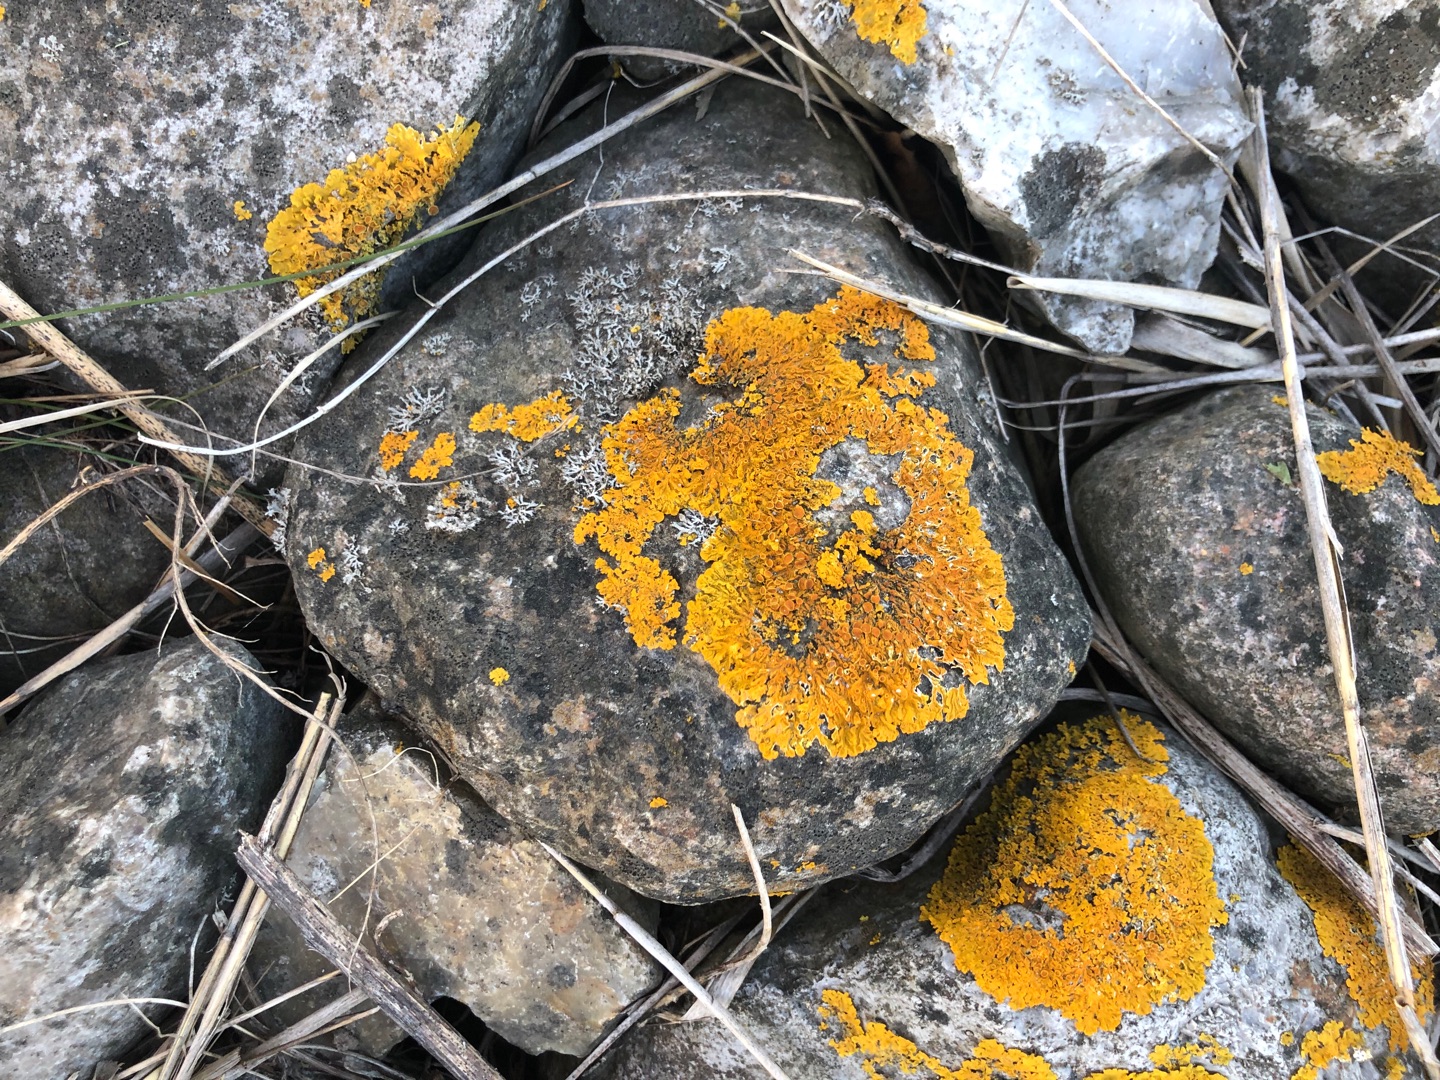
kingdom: Fungi
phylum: Ascomycota
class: Lecanoromycetes
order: Teloschistales
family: Teloschistaceae
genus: Xanthoria
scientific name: Xanthoria parietina
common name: Almindelig væggelav
